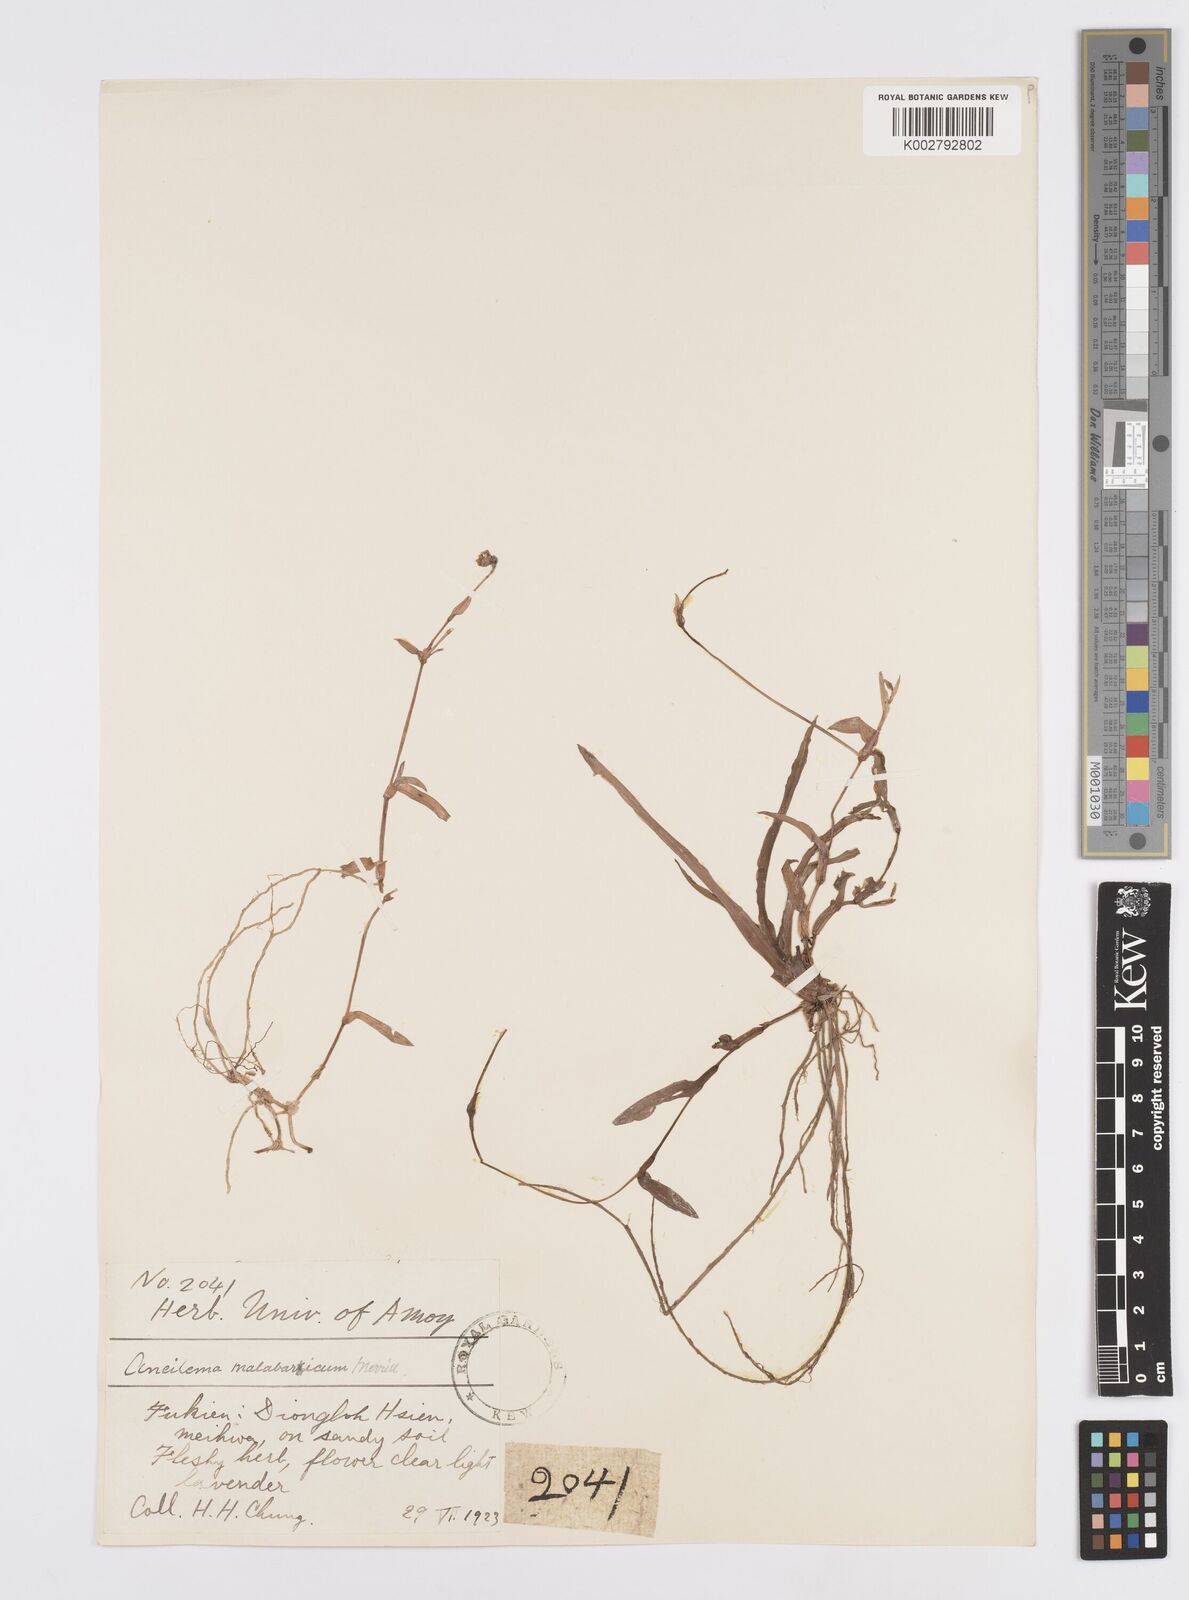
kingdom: Plantae
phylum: Tracheophyta
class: Liliopsida
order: Commelinales
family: Commelinaceae
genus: Murdannia
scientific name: Murdannia
